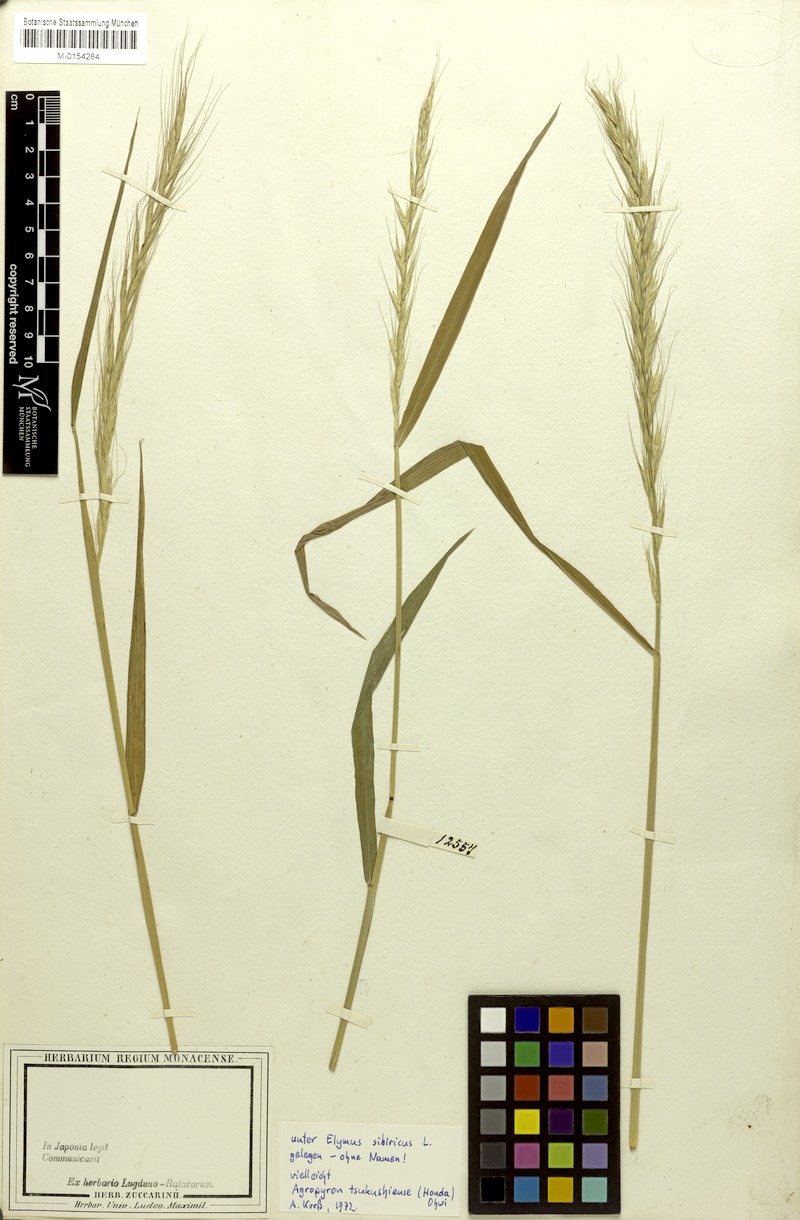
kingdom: Plantae
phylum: Tracheophyta
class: Liliopsida
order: Poales
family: Poaceae
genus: Elymus
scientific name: Elymus tsukushiensis
